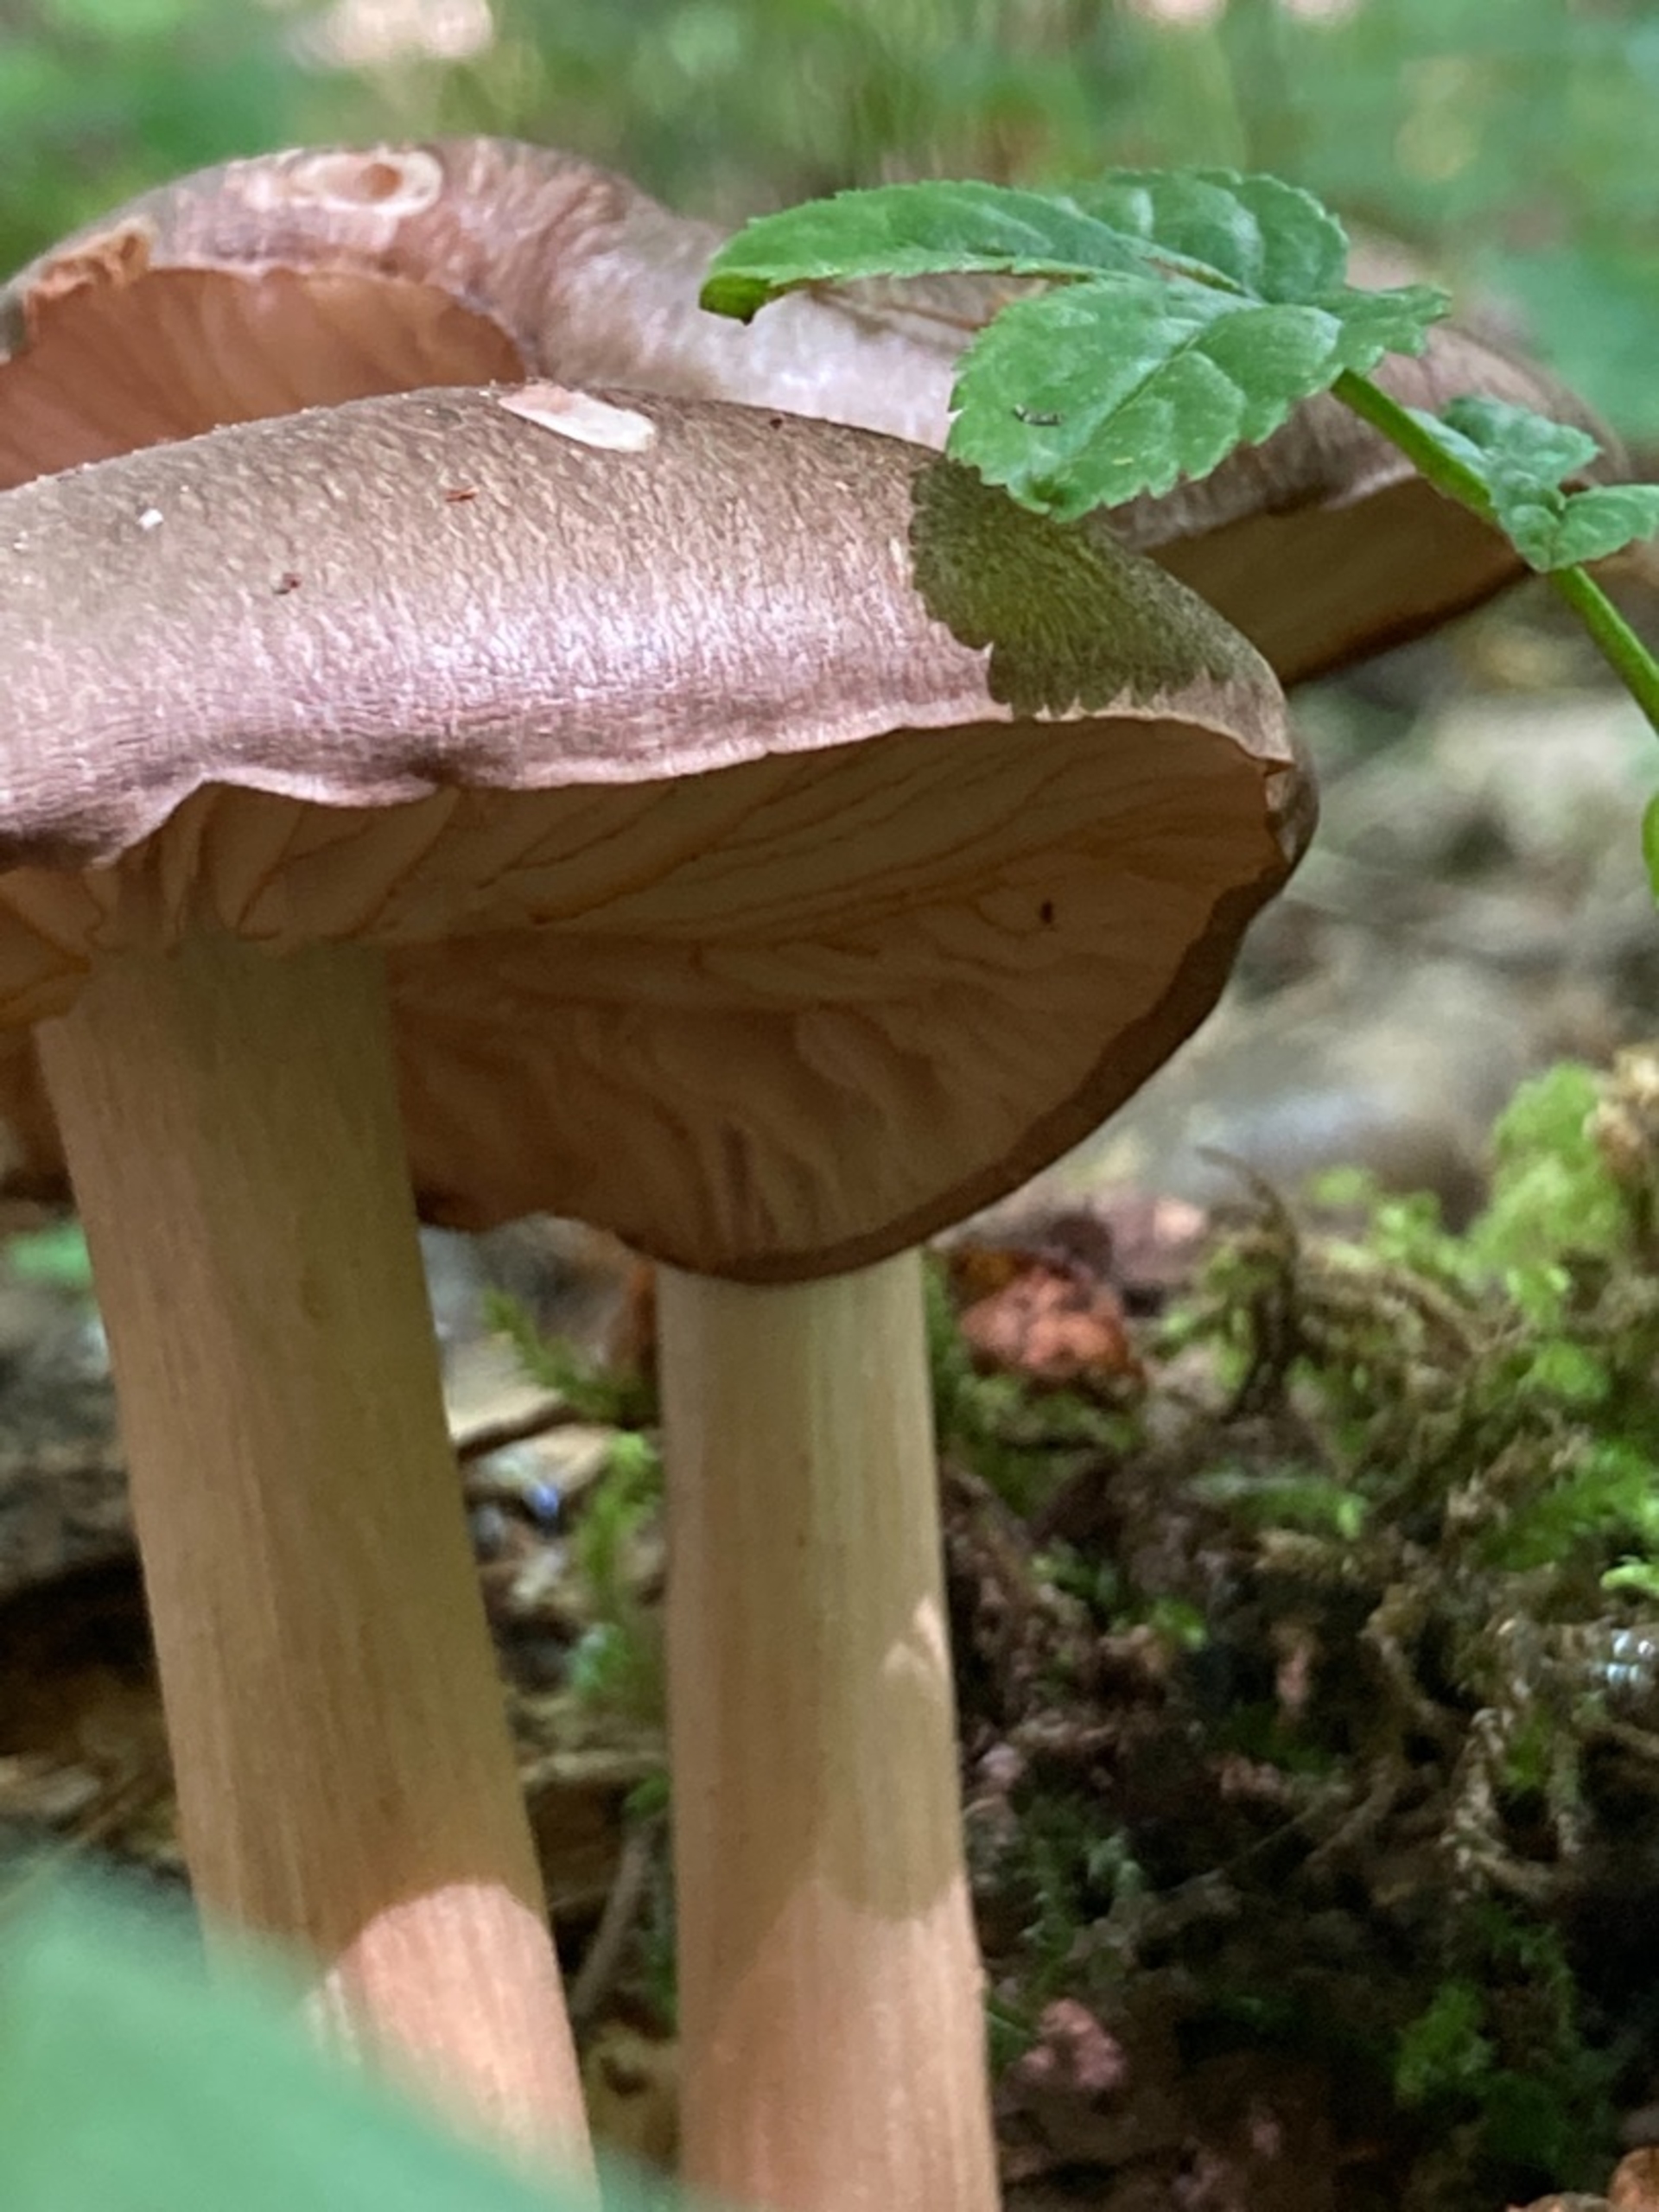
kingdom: Fungi
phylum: Basidiomycota
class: Agaricomycetes
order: Agaricales
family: Tricholomataceae
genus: Megacollybia
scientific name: Megacollybia platyphylla
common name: Bredbladet væbnerhat
